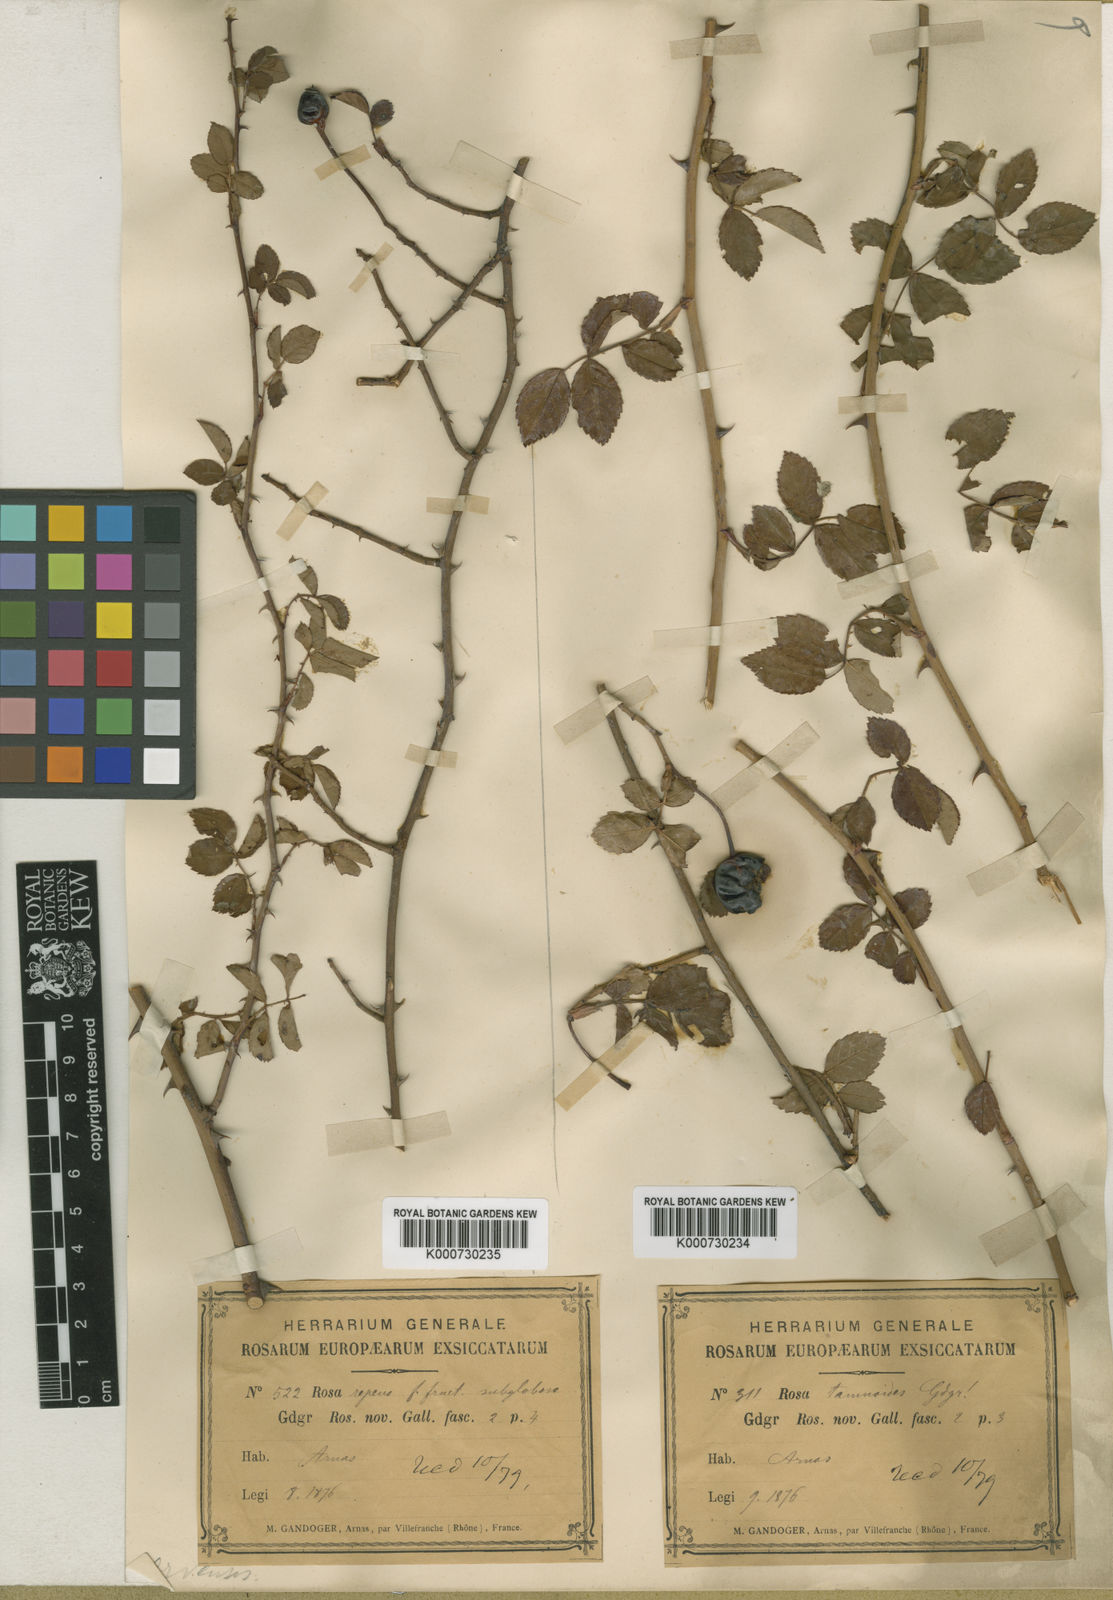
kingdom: Plantae
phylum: Tracheophyta
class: Magnoliopsida
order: Rosales
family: Rosaceae
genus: Rosa
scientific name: Rosa arvensis
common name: Field rose
